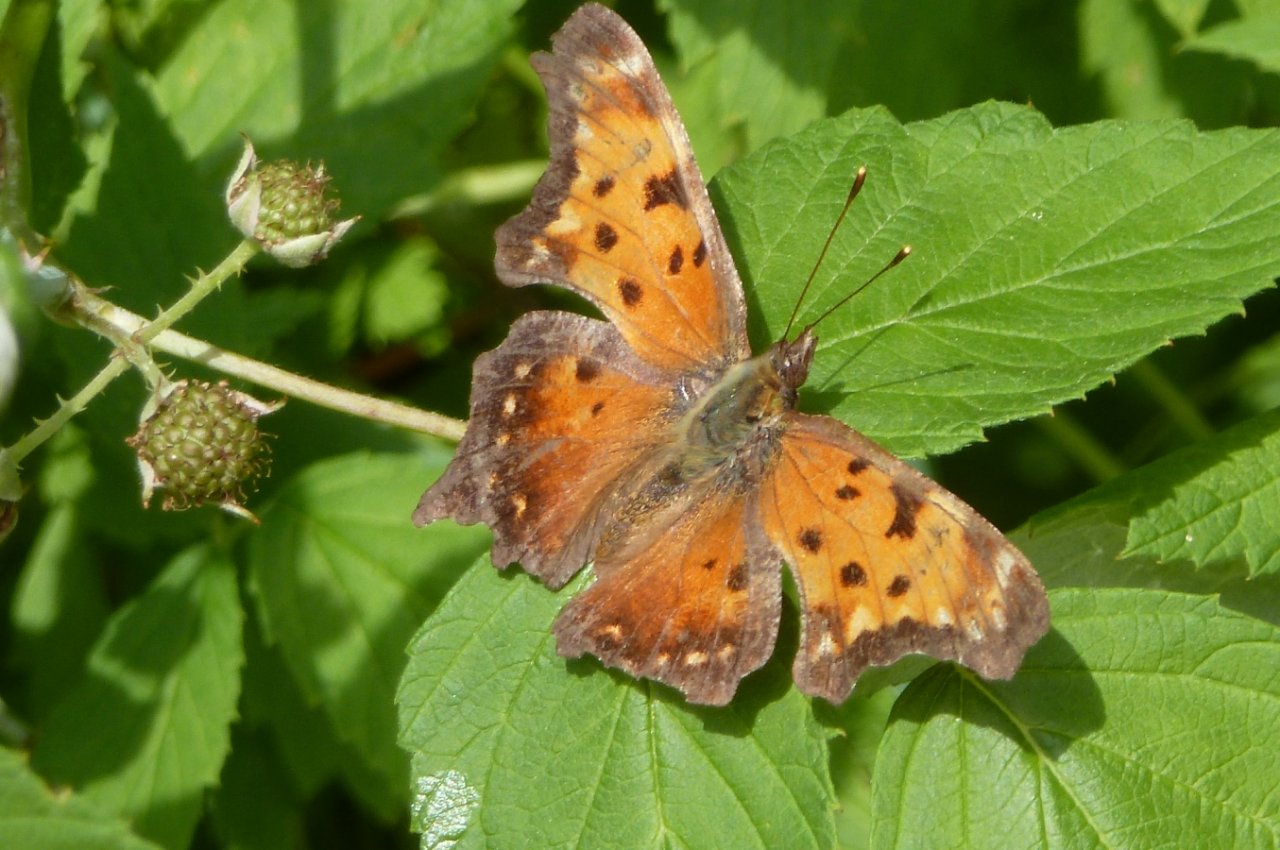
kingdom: Animalia
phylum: Arthropoda
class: Insecta
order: Lepidoptera
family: Nymphalidae
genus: Polygonia
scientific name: Polygonia progne
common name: Gray Comma
